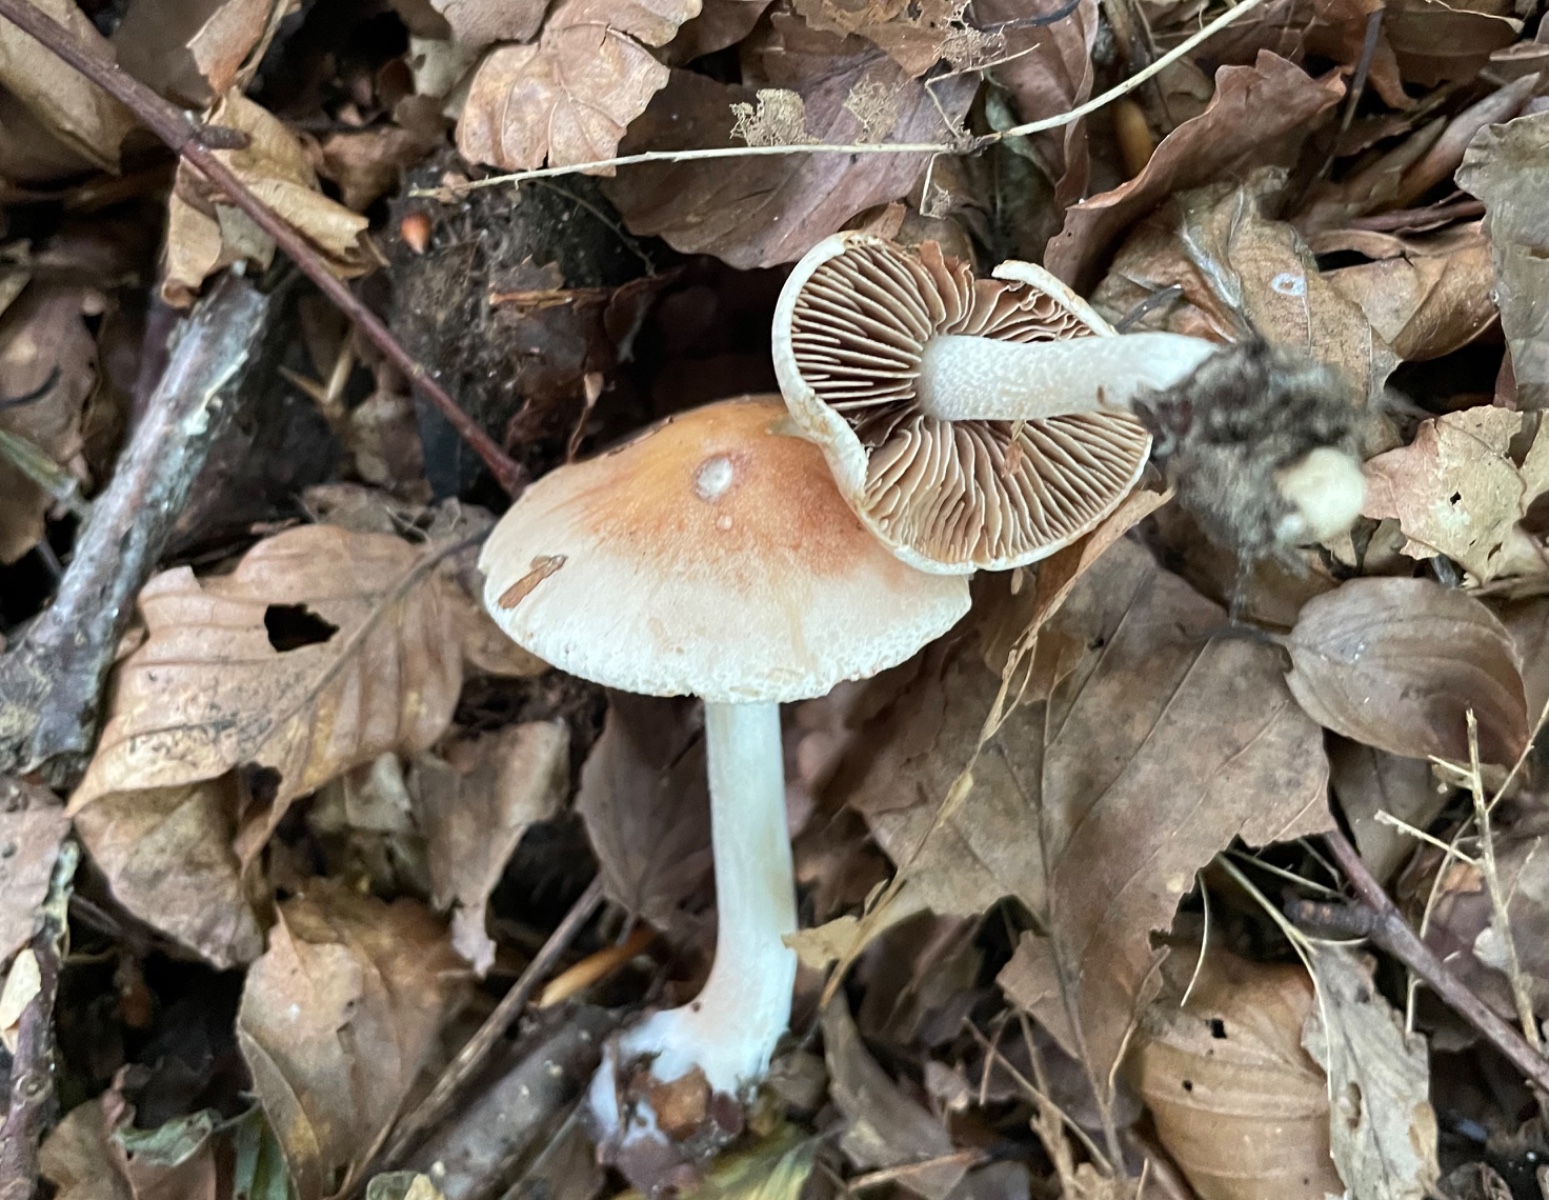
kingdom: Fungi
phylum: Basidiomycota
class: Agaricomycetes
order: Agaricales
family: Hymenogastraceae
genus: Hebeloma
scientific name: Hebeloma
